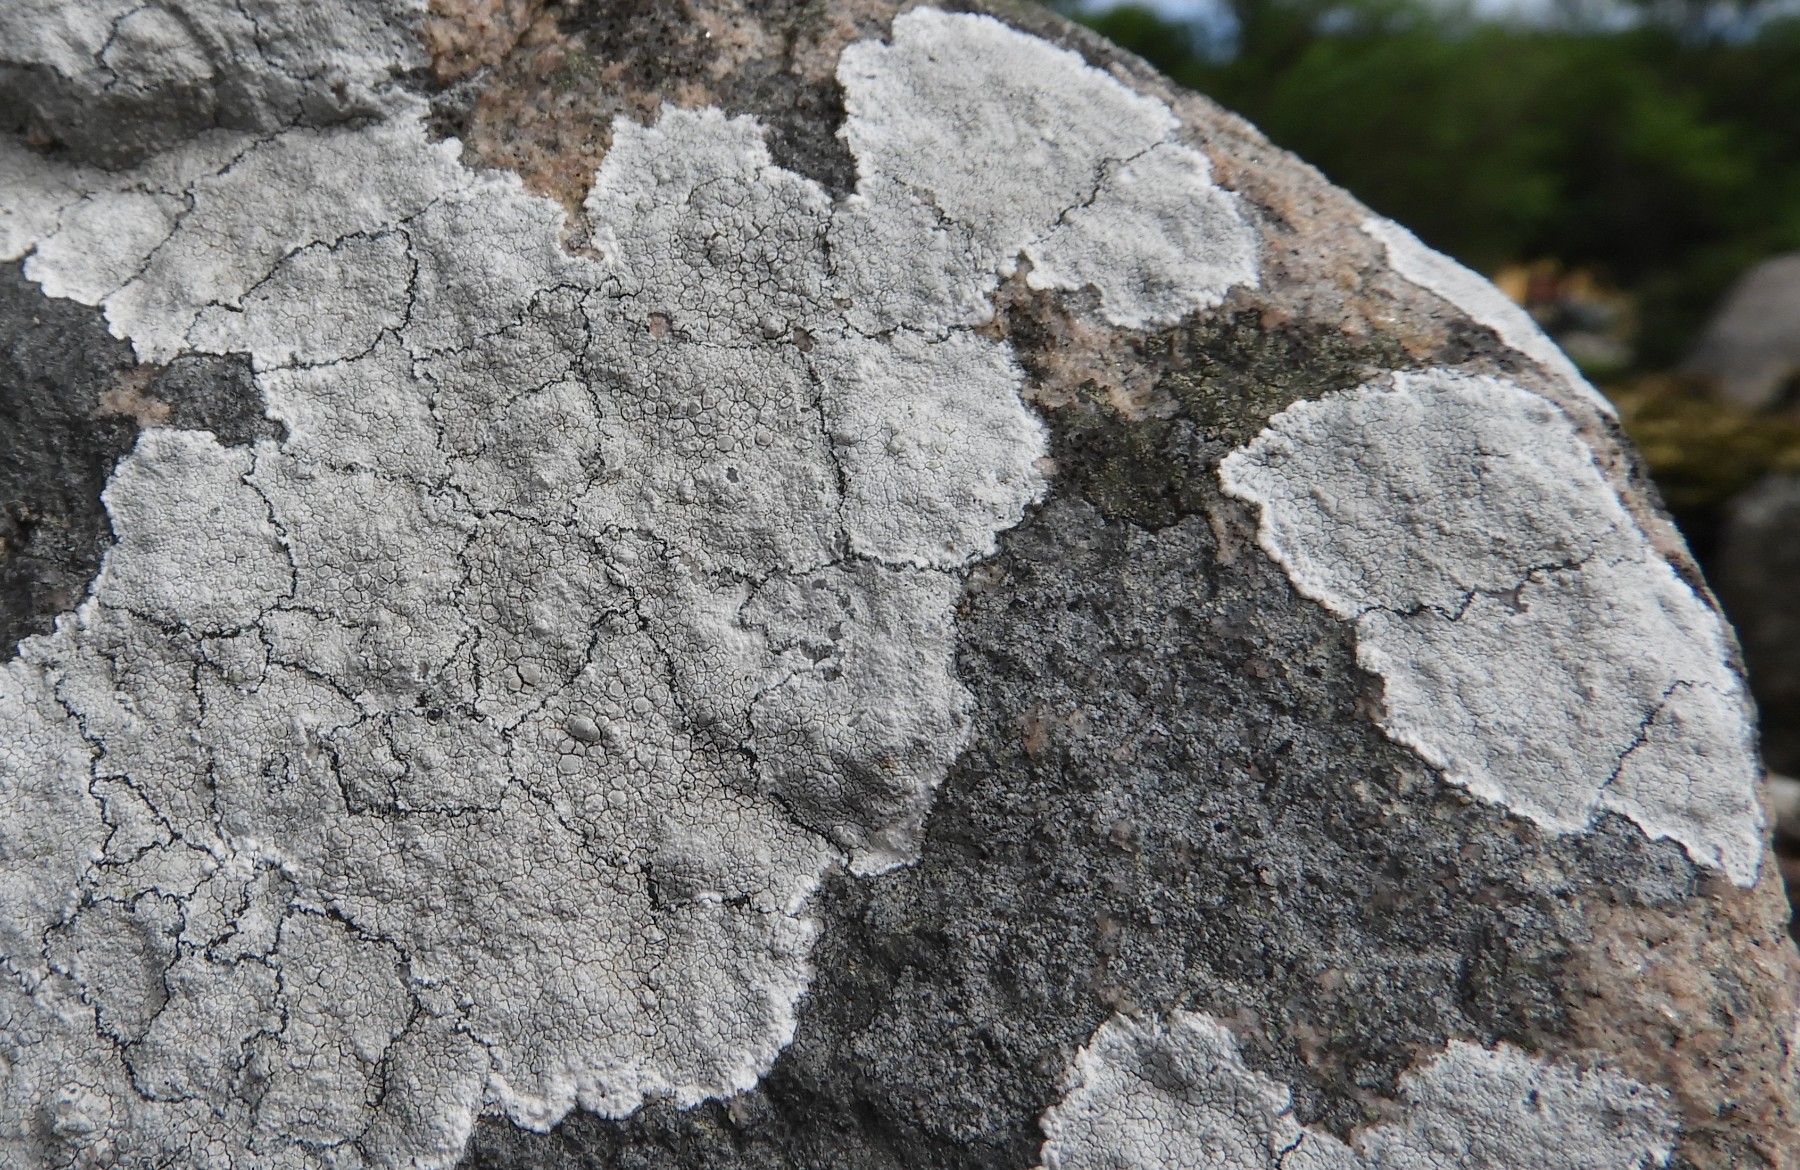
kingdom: Fungi
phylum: Ascomycota
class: Lecanoromycetes
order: Lecanorales
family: Lecanoraceae
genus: Glaucomaria
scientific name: Glaucomaria rupicola
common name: stengærde-kantskivelav
